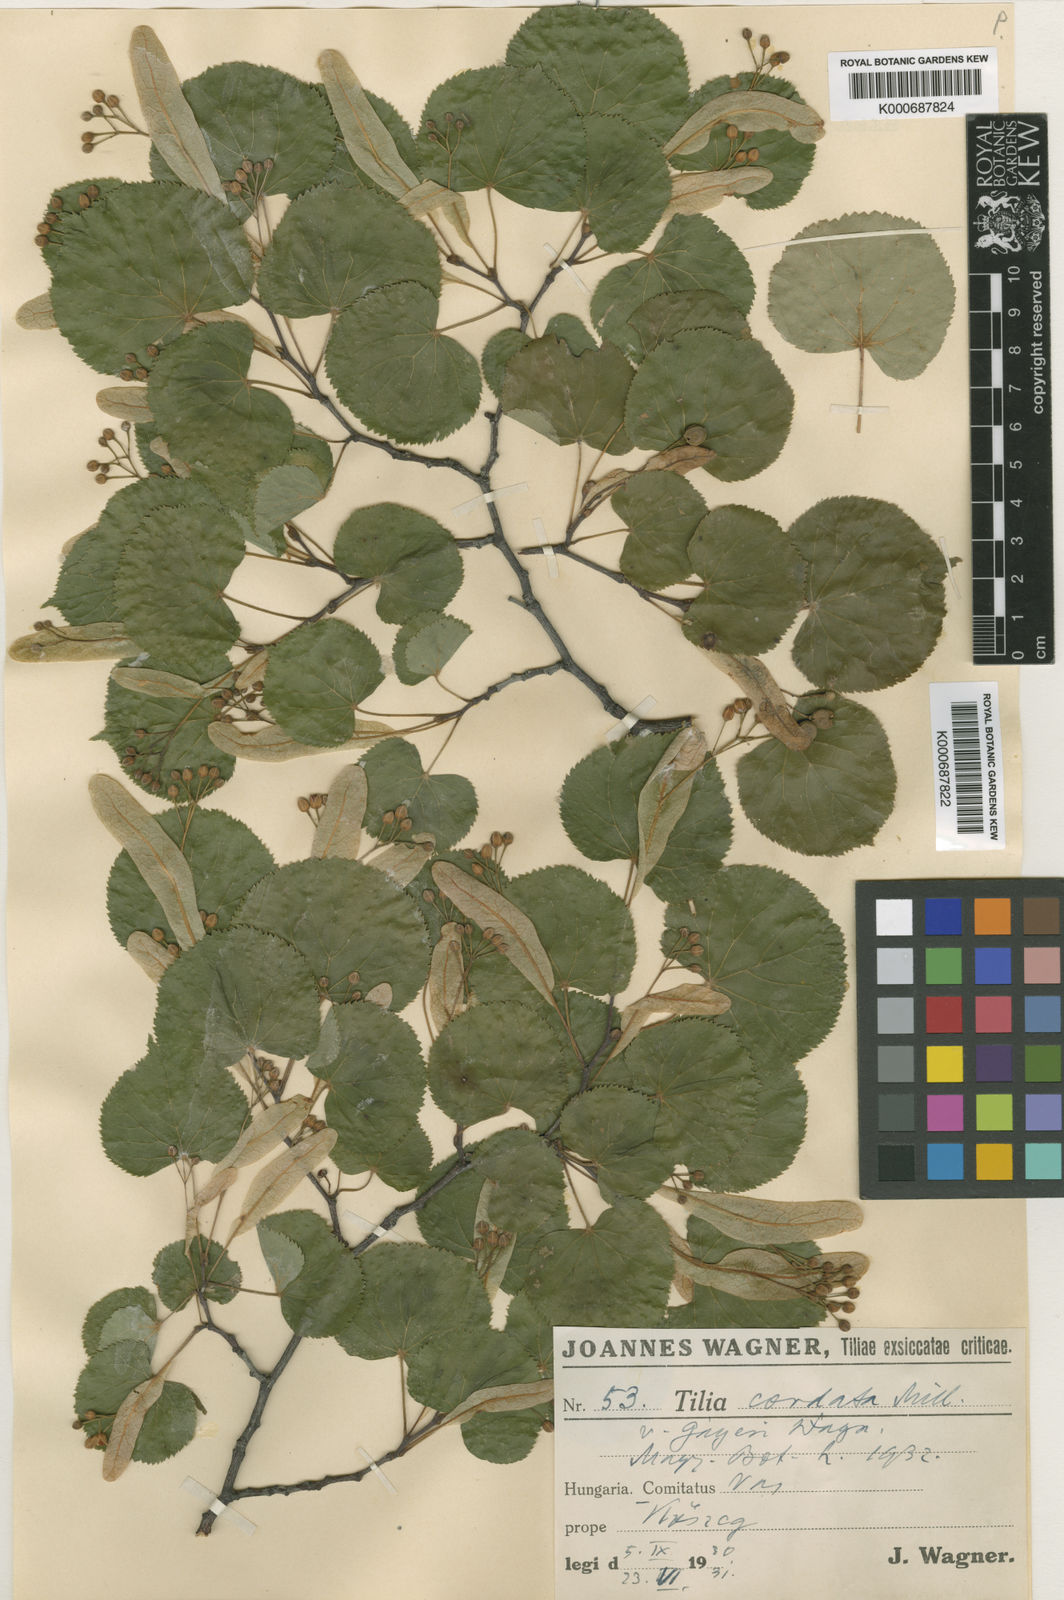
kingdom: Plantae
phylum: Tracheophyta
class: Magnoliopsida
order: Malvales
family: Malvaceae
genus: Tilia
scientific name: Tilia cordata
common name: Small-leaved lime
